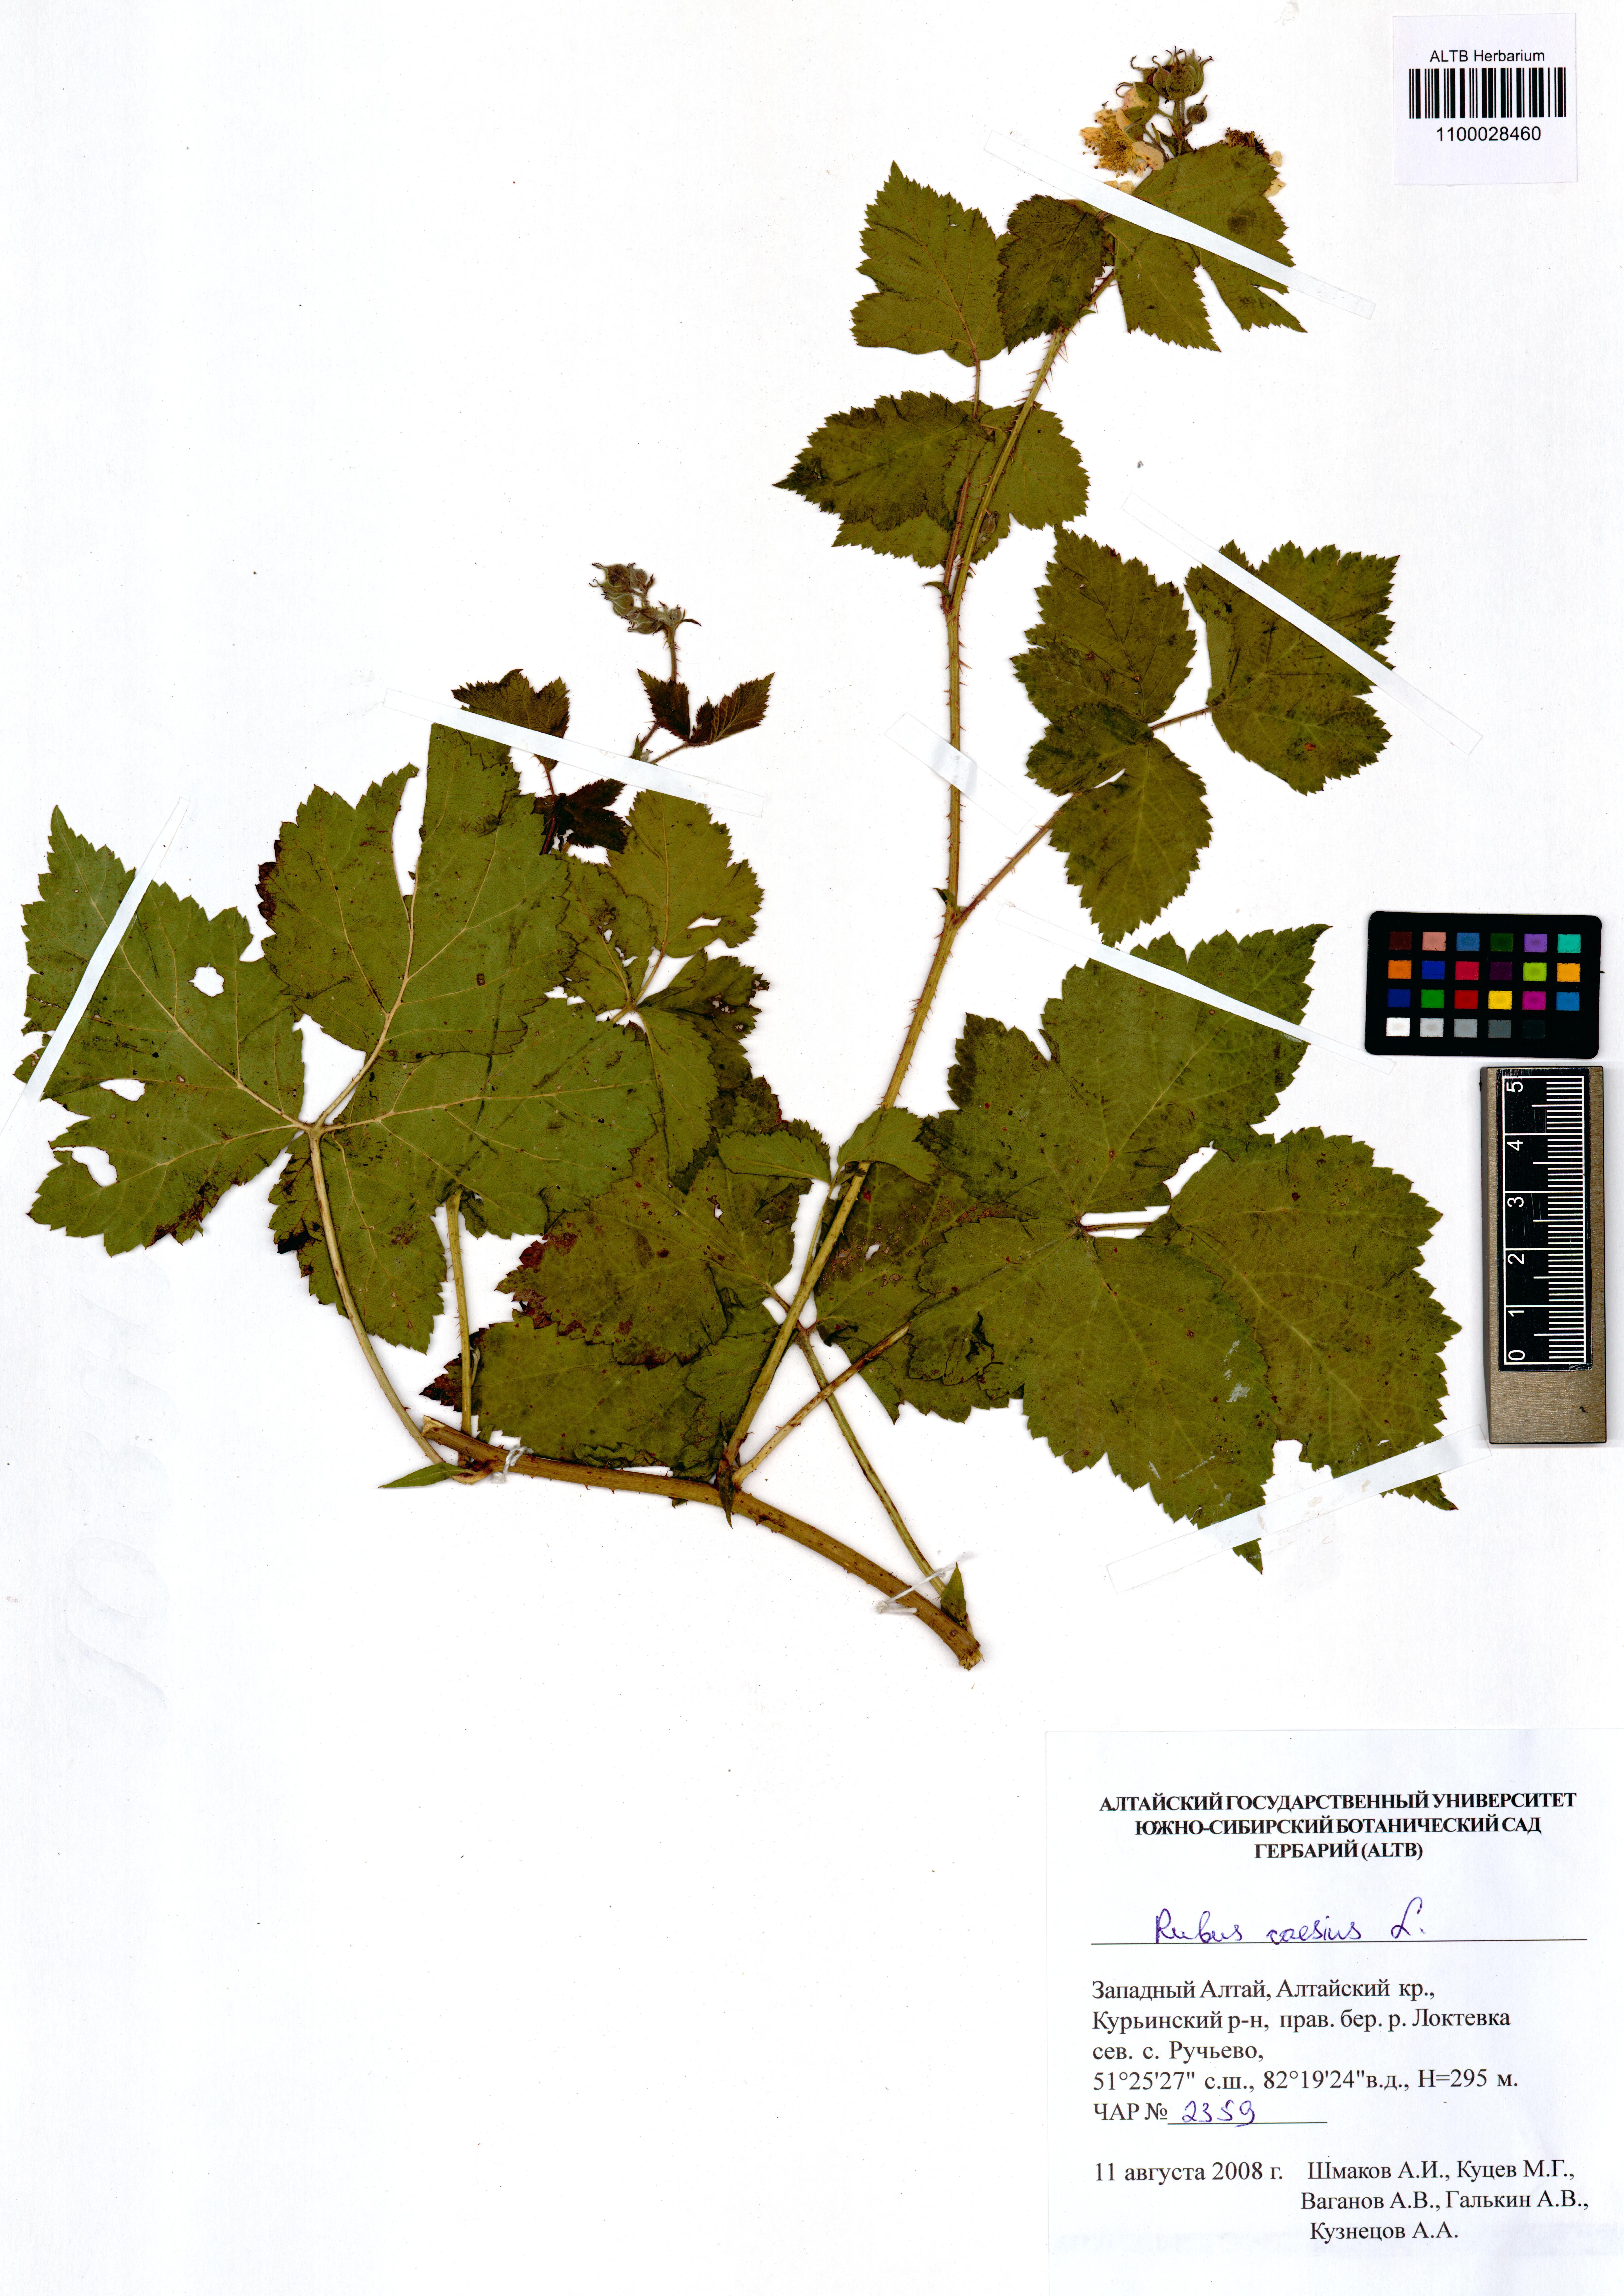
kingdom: Plantae
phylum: Tracheophyta
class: Magnoliopsida
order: Rosales
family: Rosaceae
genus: Rubus
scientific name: Rubus caesius
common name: Dewberry
